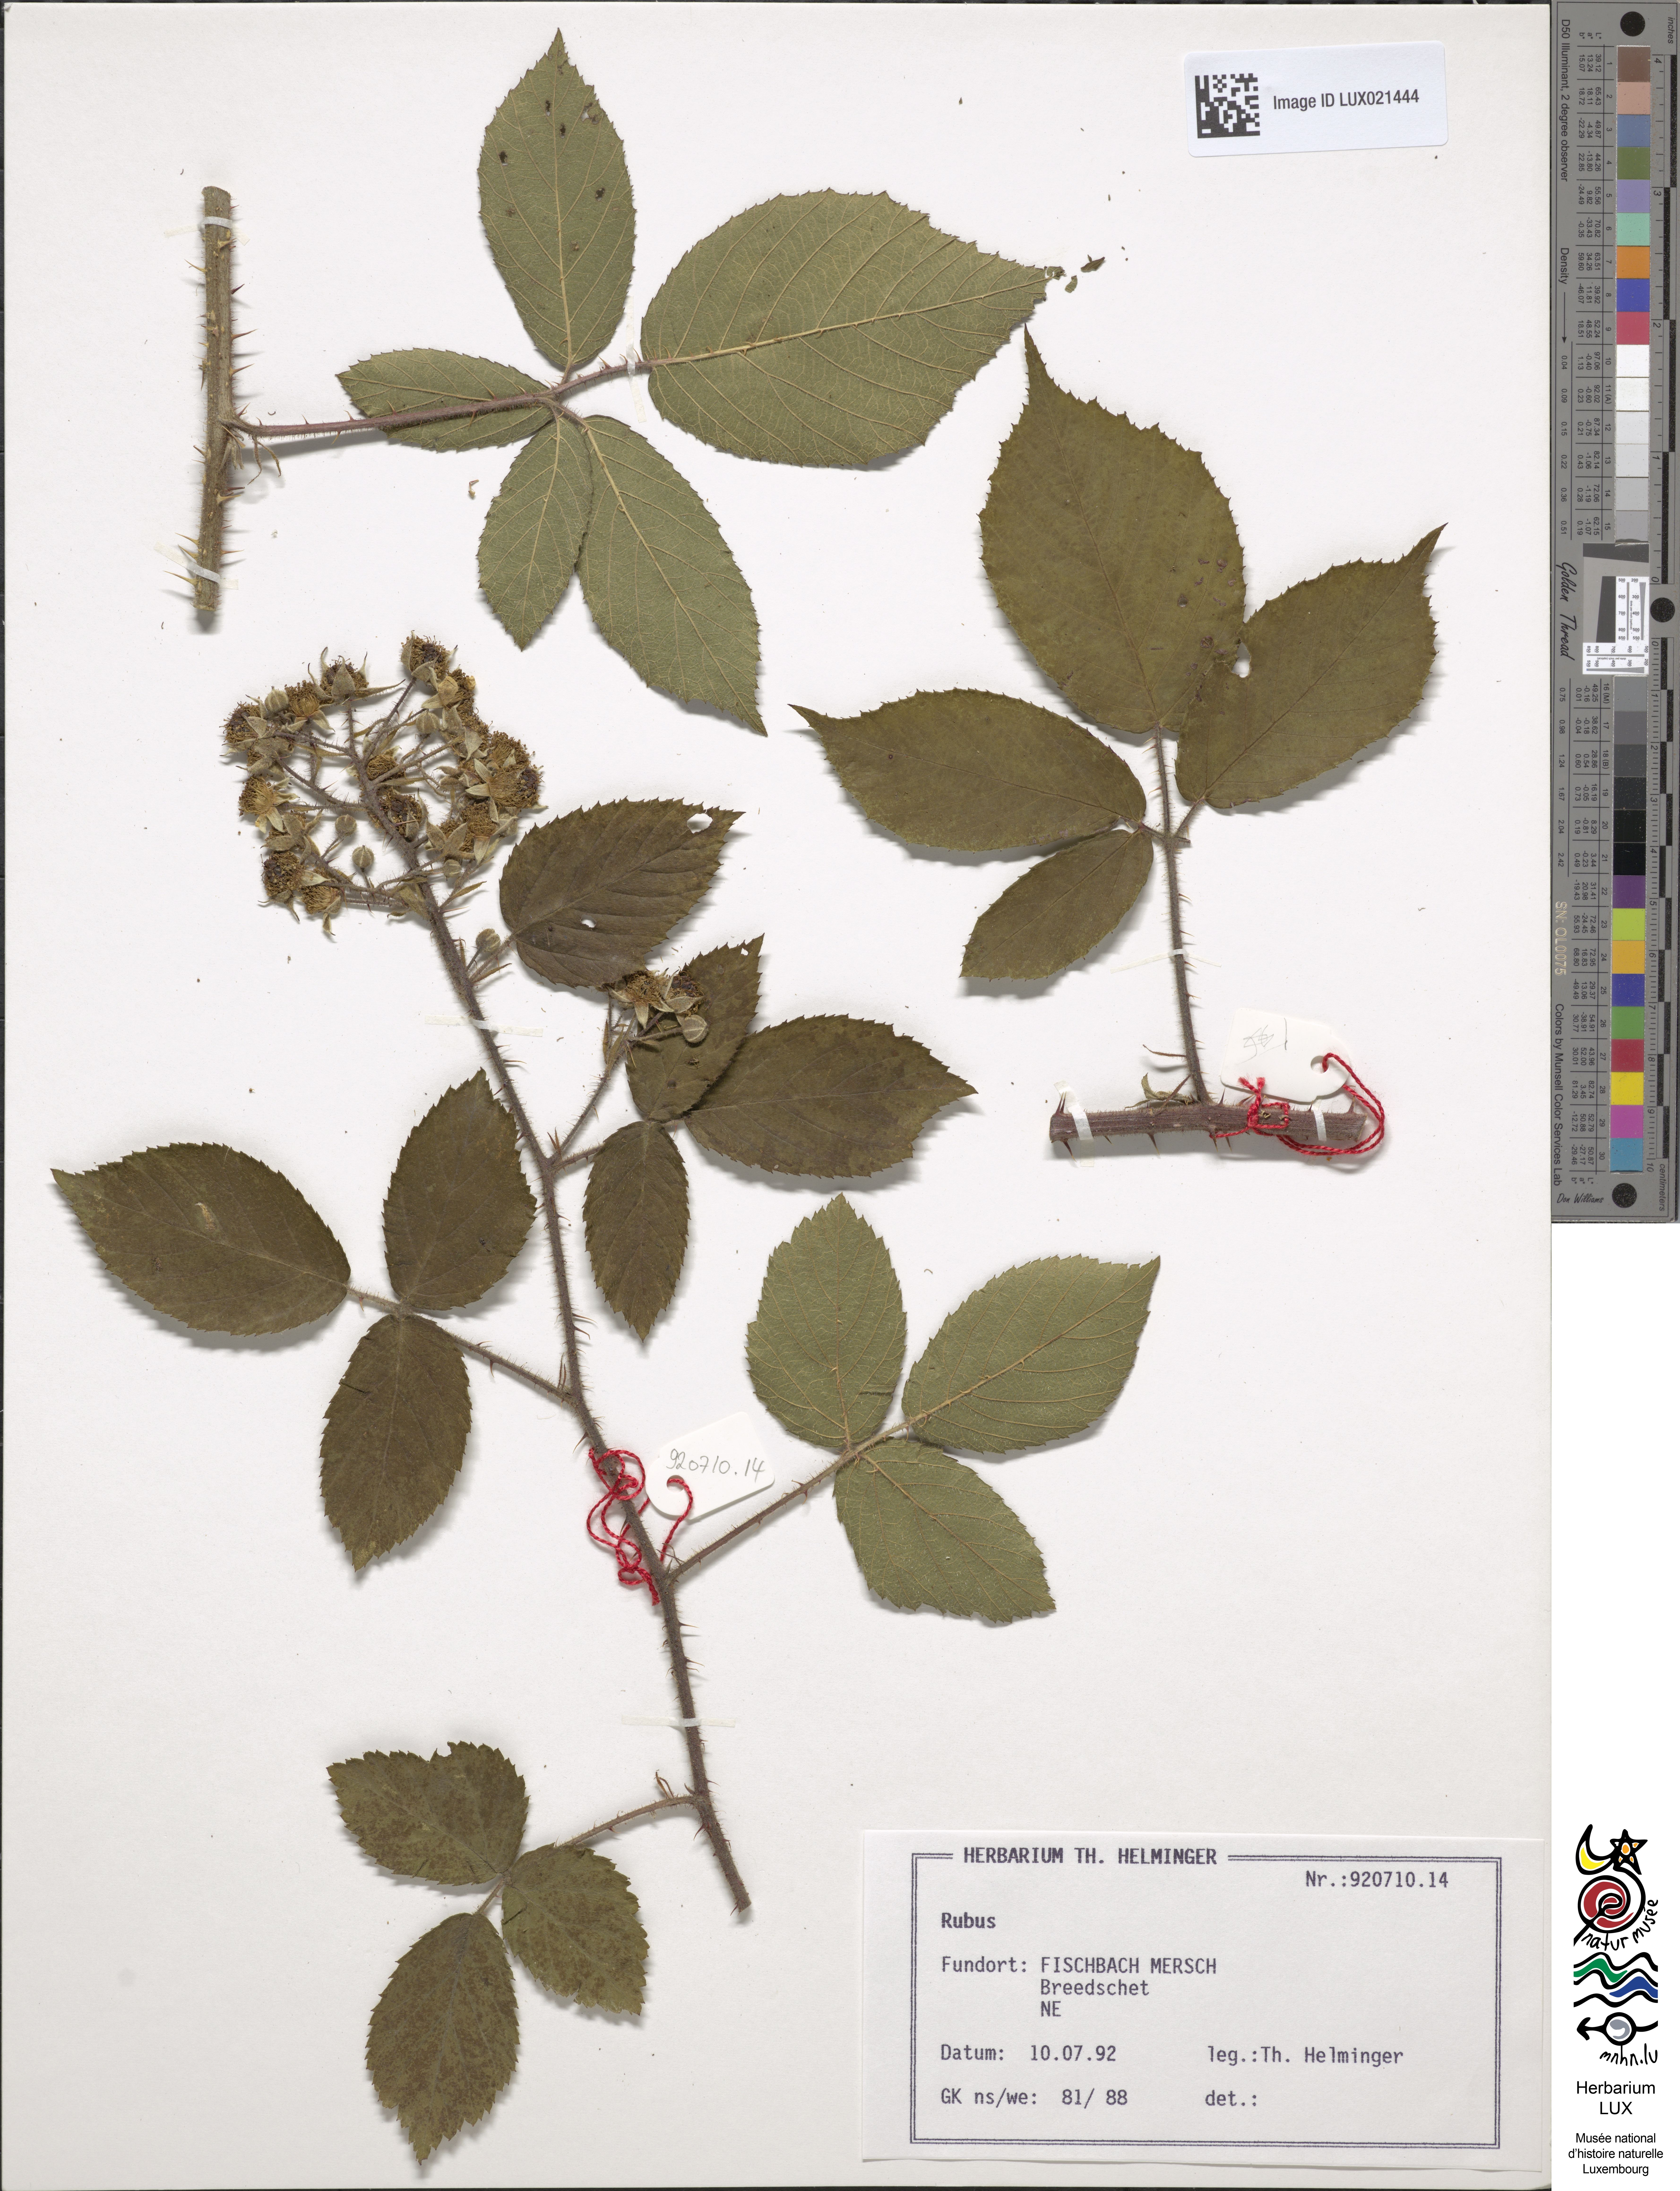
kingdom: Plantae
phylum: Tracheophyta
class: Magnoliopsida
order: Rosales
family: Rosaceae
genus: Rubus
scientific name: Rubus
